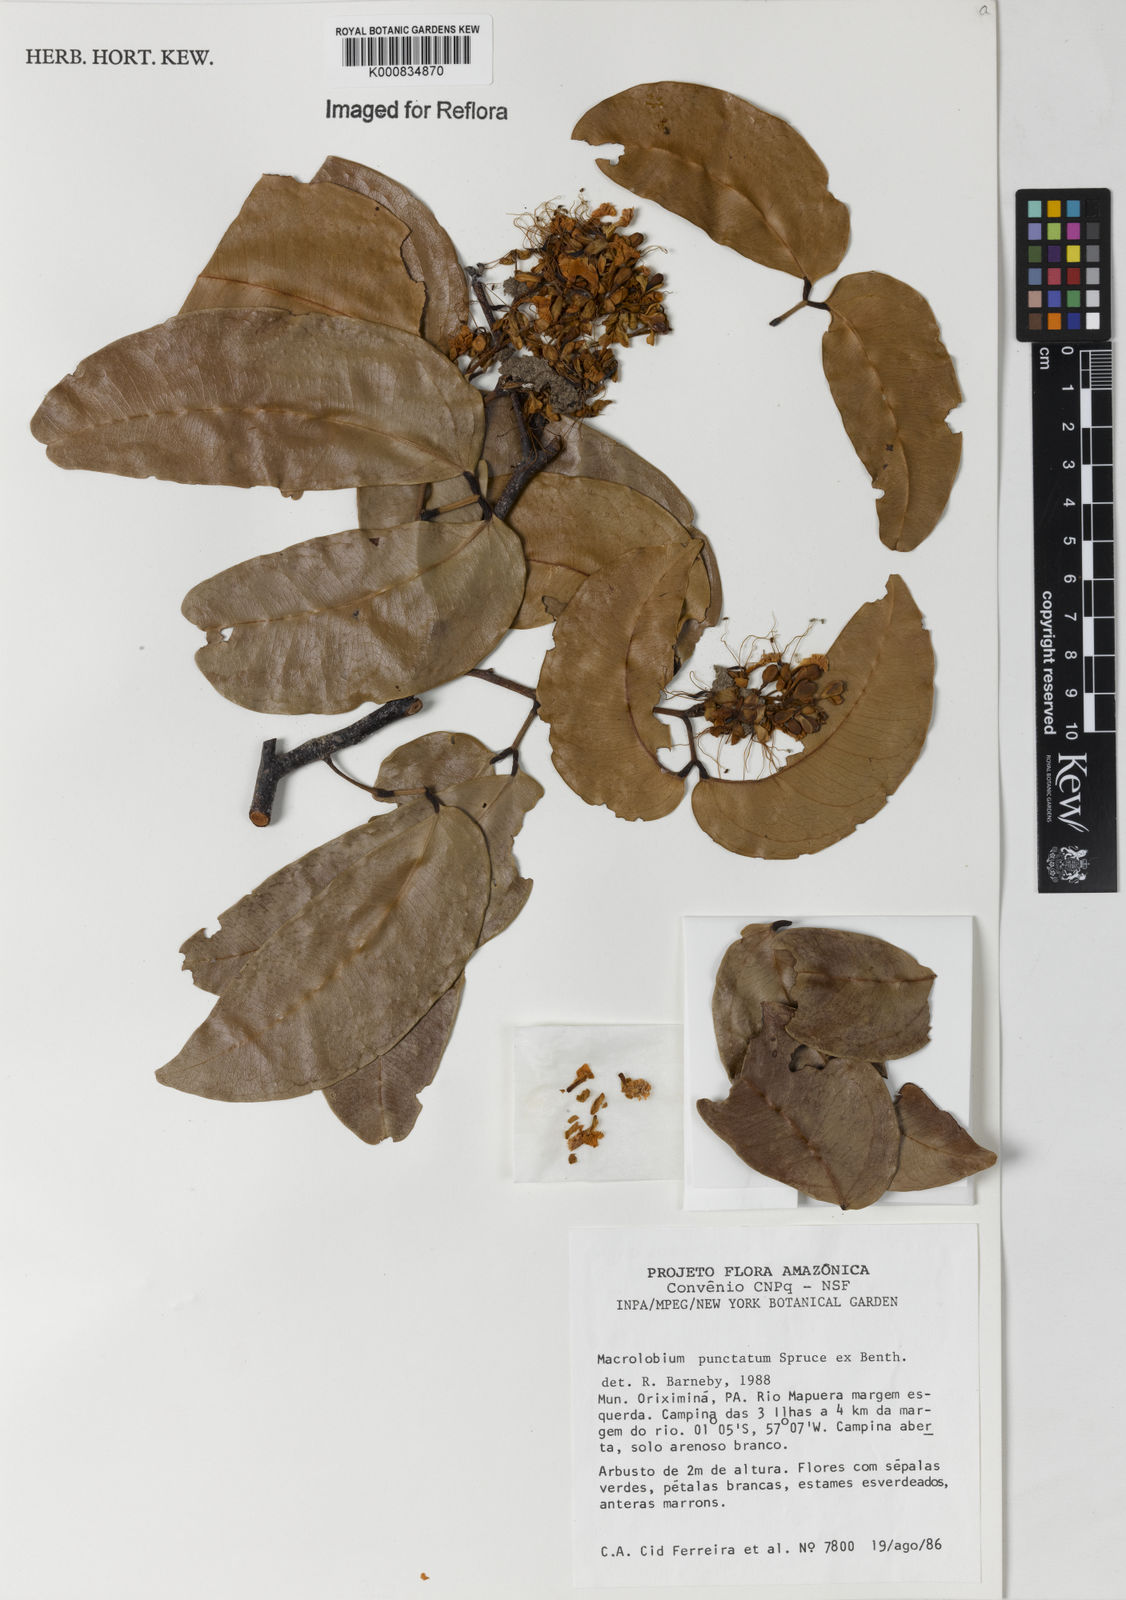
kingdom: Plantae
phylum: Tracheophyta
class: Magnoliopsida
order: Fabales
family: Fabaceae
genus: Macrolobium
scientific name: Macrolobium punctatum
